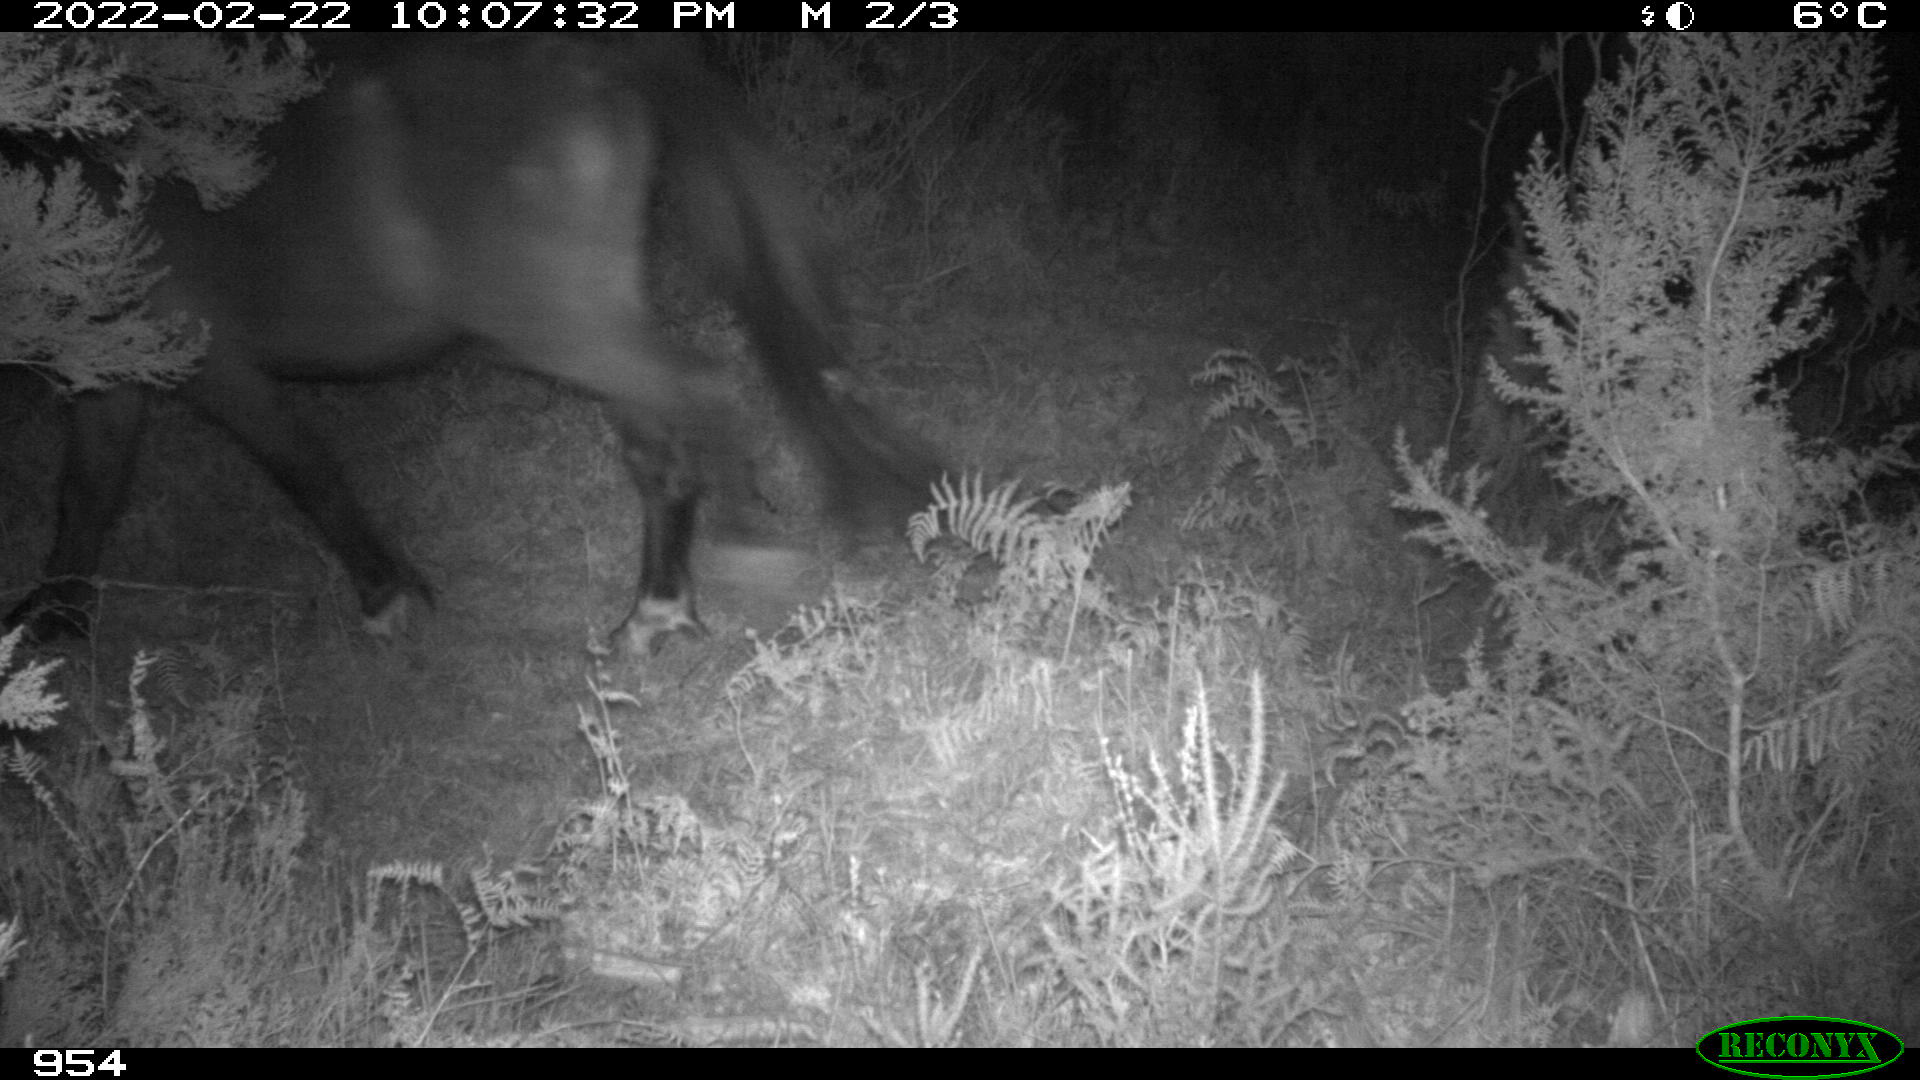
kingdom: Animalia
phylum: Chordata
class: Mammalia
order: Perissodactyla
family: Equidae
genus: Equus
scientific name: Equus caballus
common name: Horse
